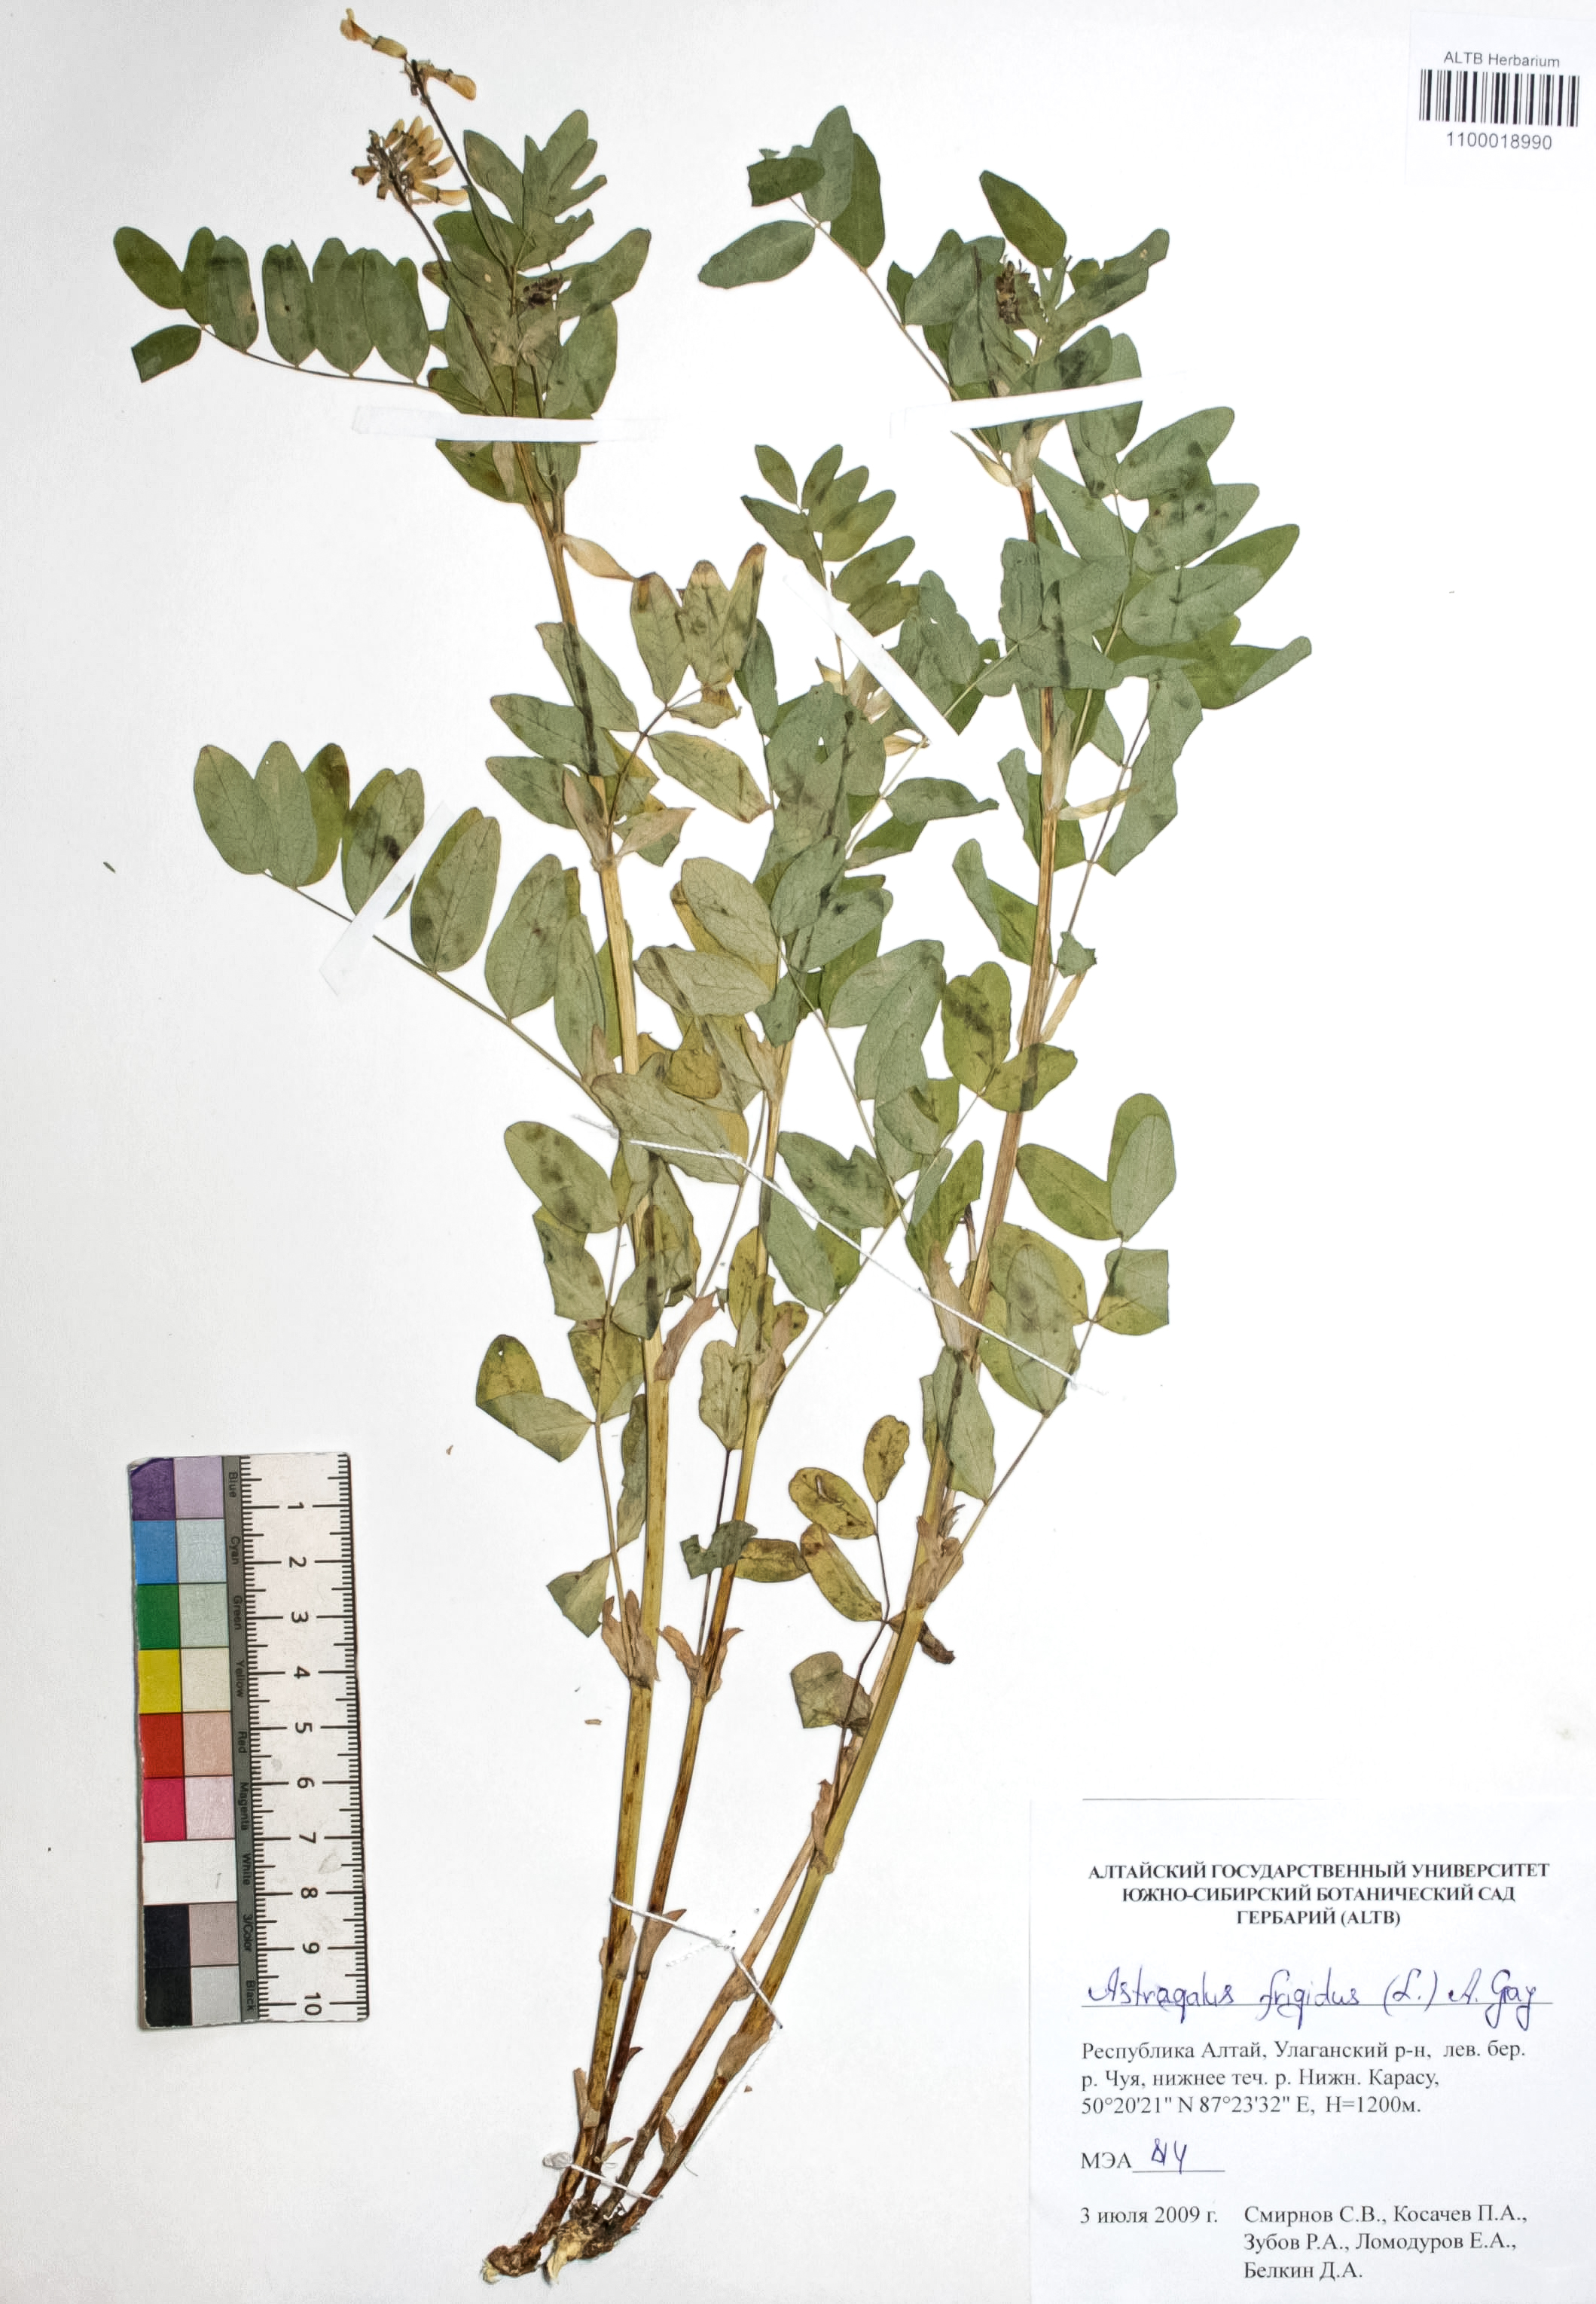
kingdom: Plantae
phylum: Tracheophyta
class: Magnoliopsida
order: Fabales
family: Fabaceae
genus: Astragalus
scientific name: Astragalus frigidus
